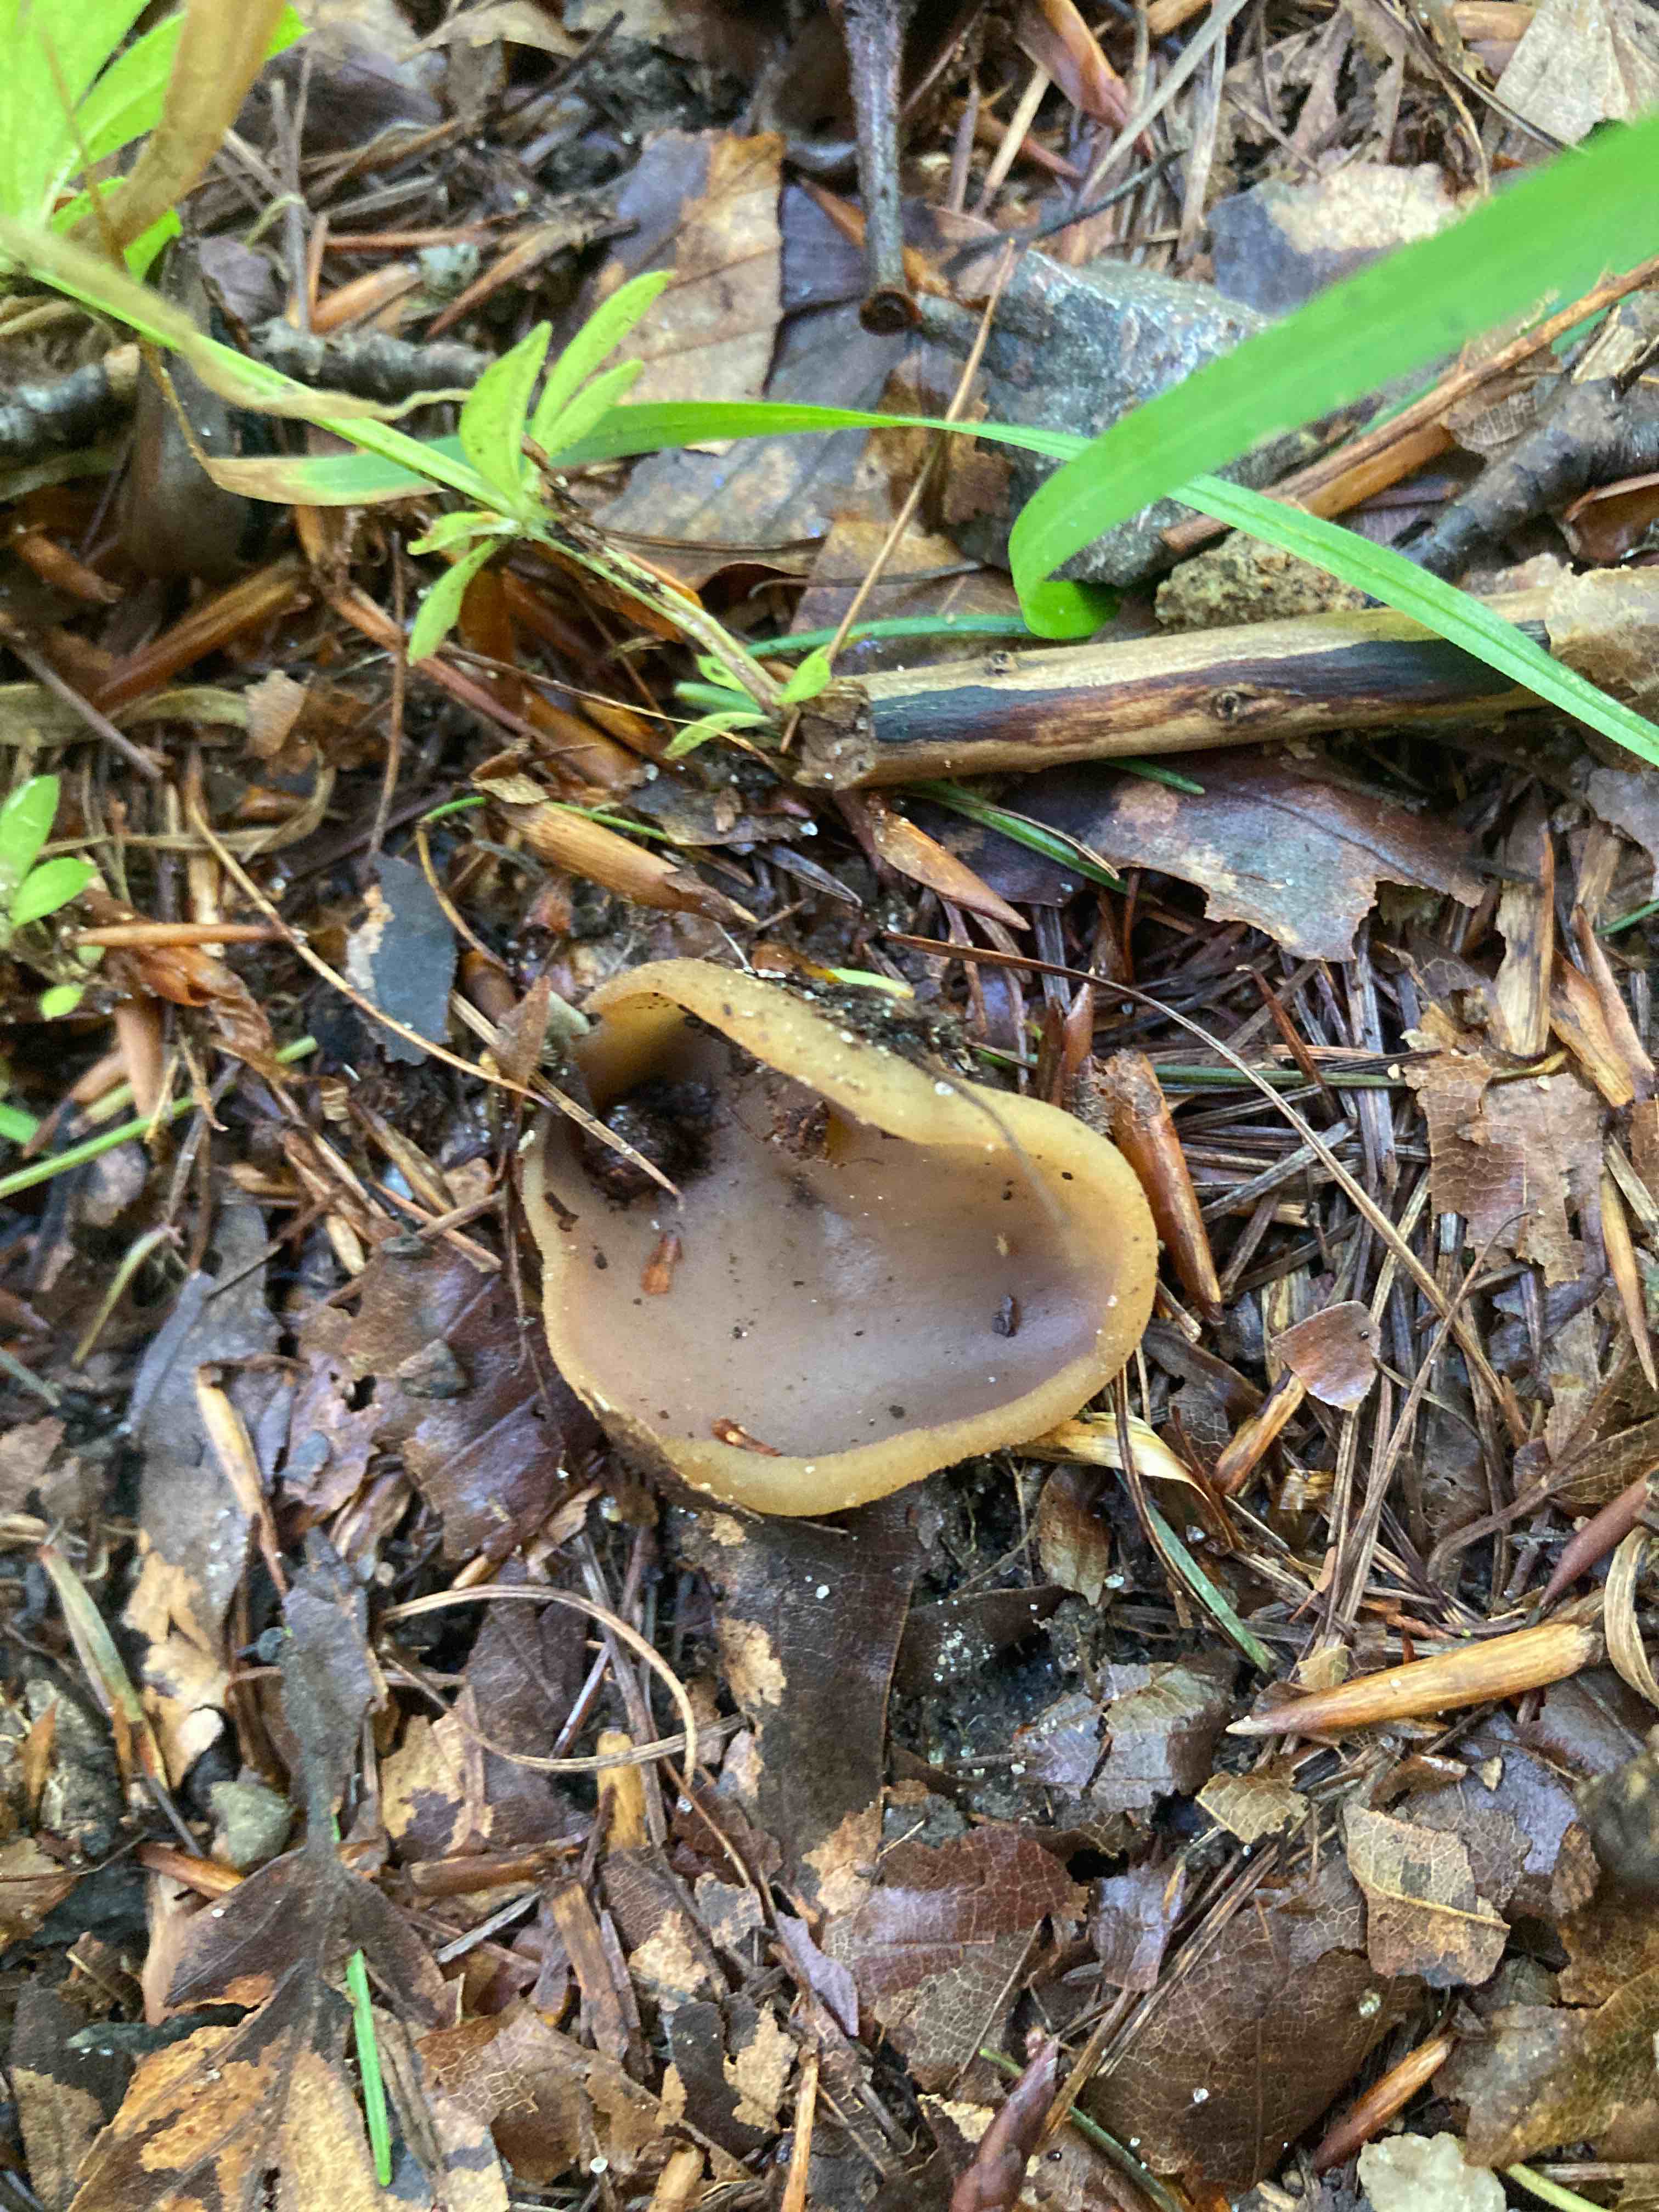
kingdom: Fungi
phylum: Ascomycota
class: Pezizomycetes
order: Pezizales
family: Pezizaceae
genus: Paragalactinia
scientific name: Paragalactinia michelii
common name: gulkødet bægersvamp
